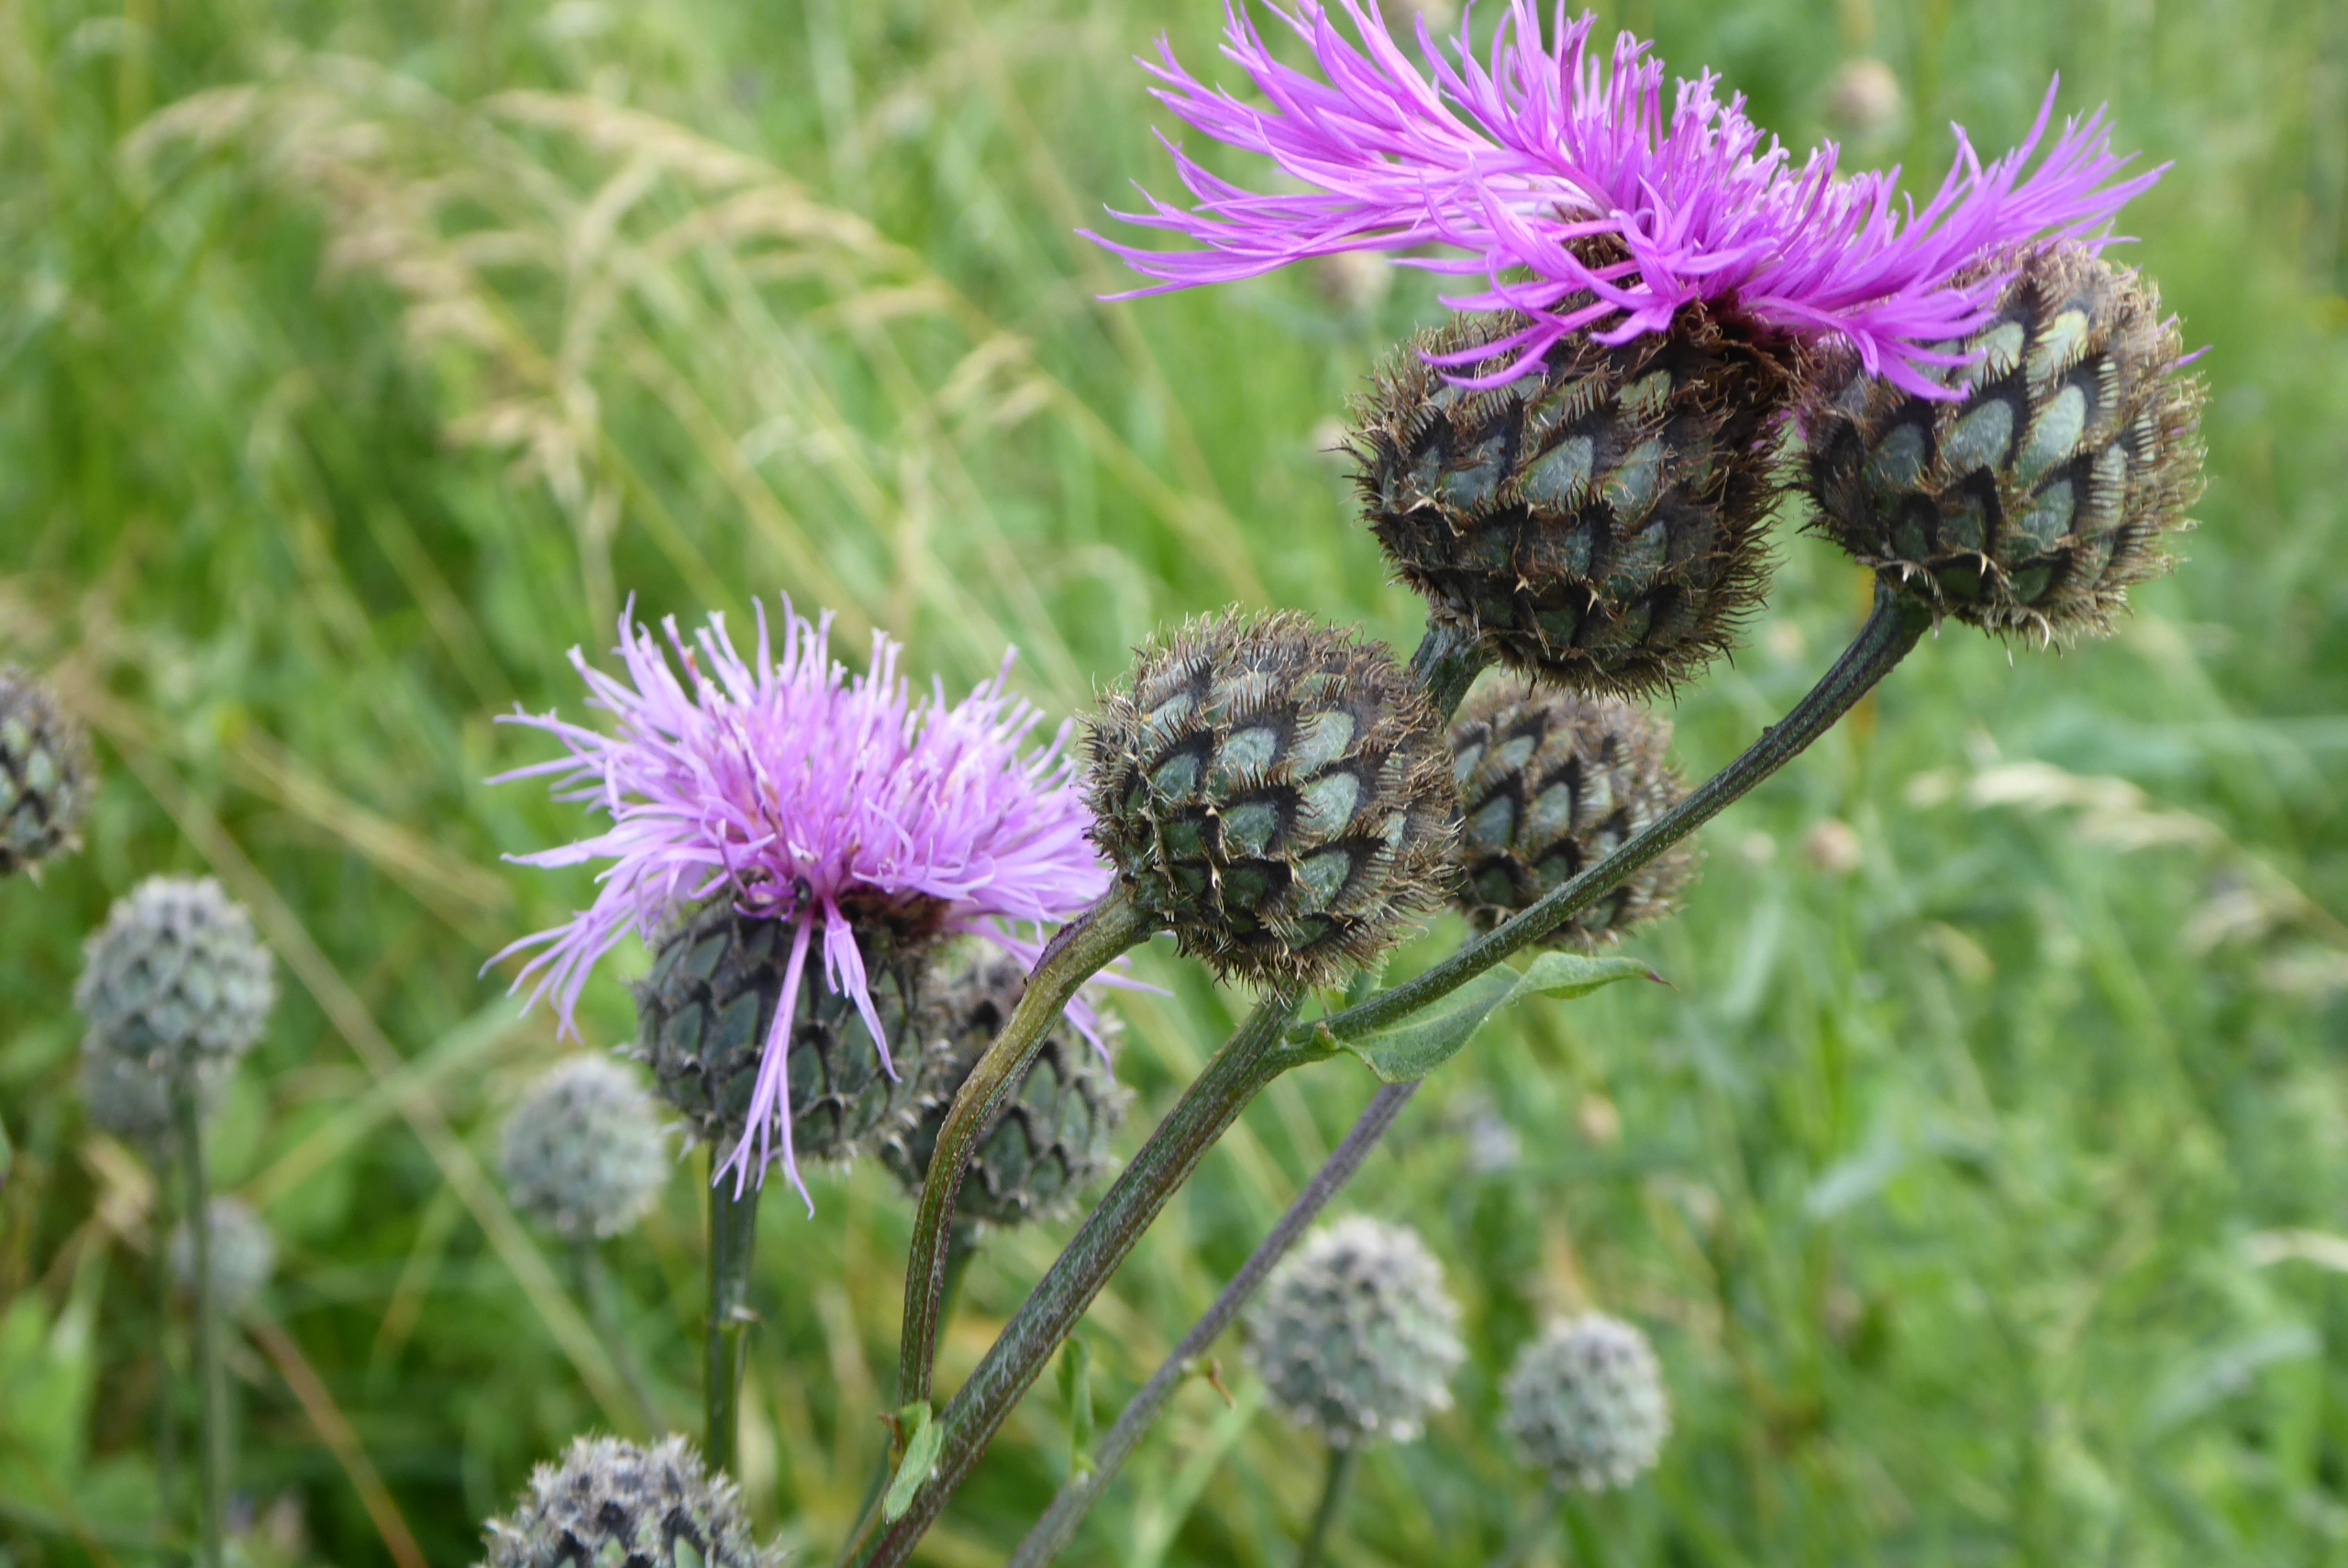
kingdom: Plantae
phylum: Tracheophyta
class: Magnoliopsida
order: Asterales
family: Asteraceae
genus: Centaurea
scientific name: Centaurea scabiosa
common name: Stor knopurt
